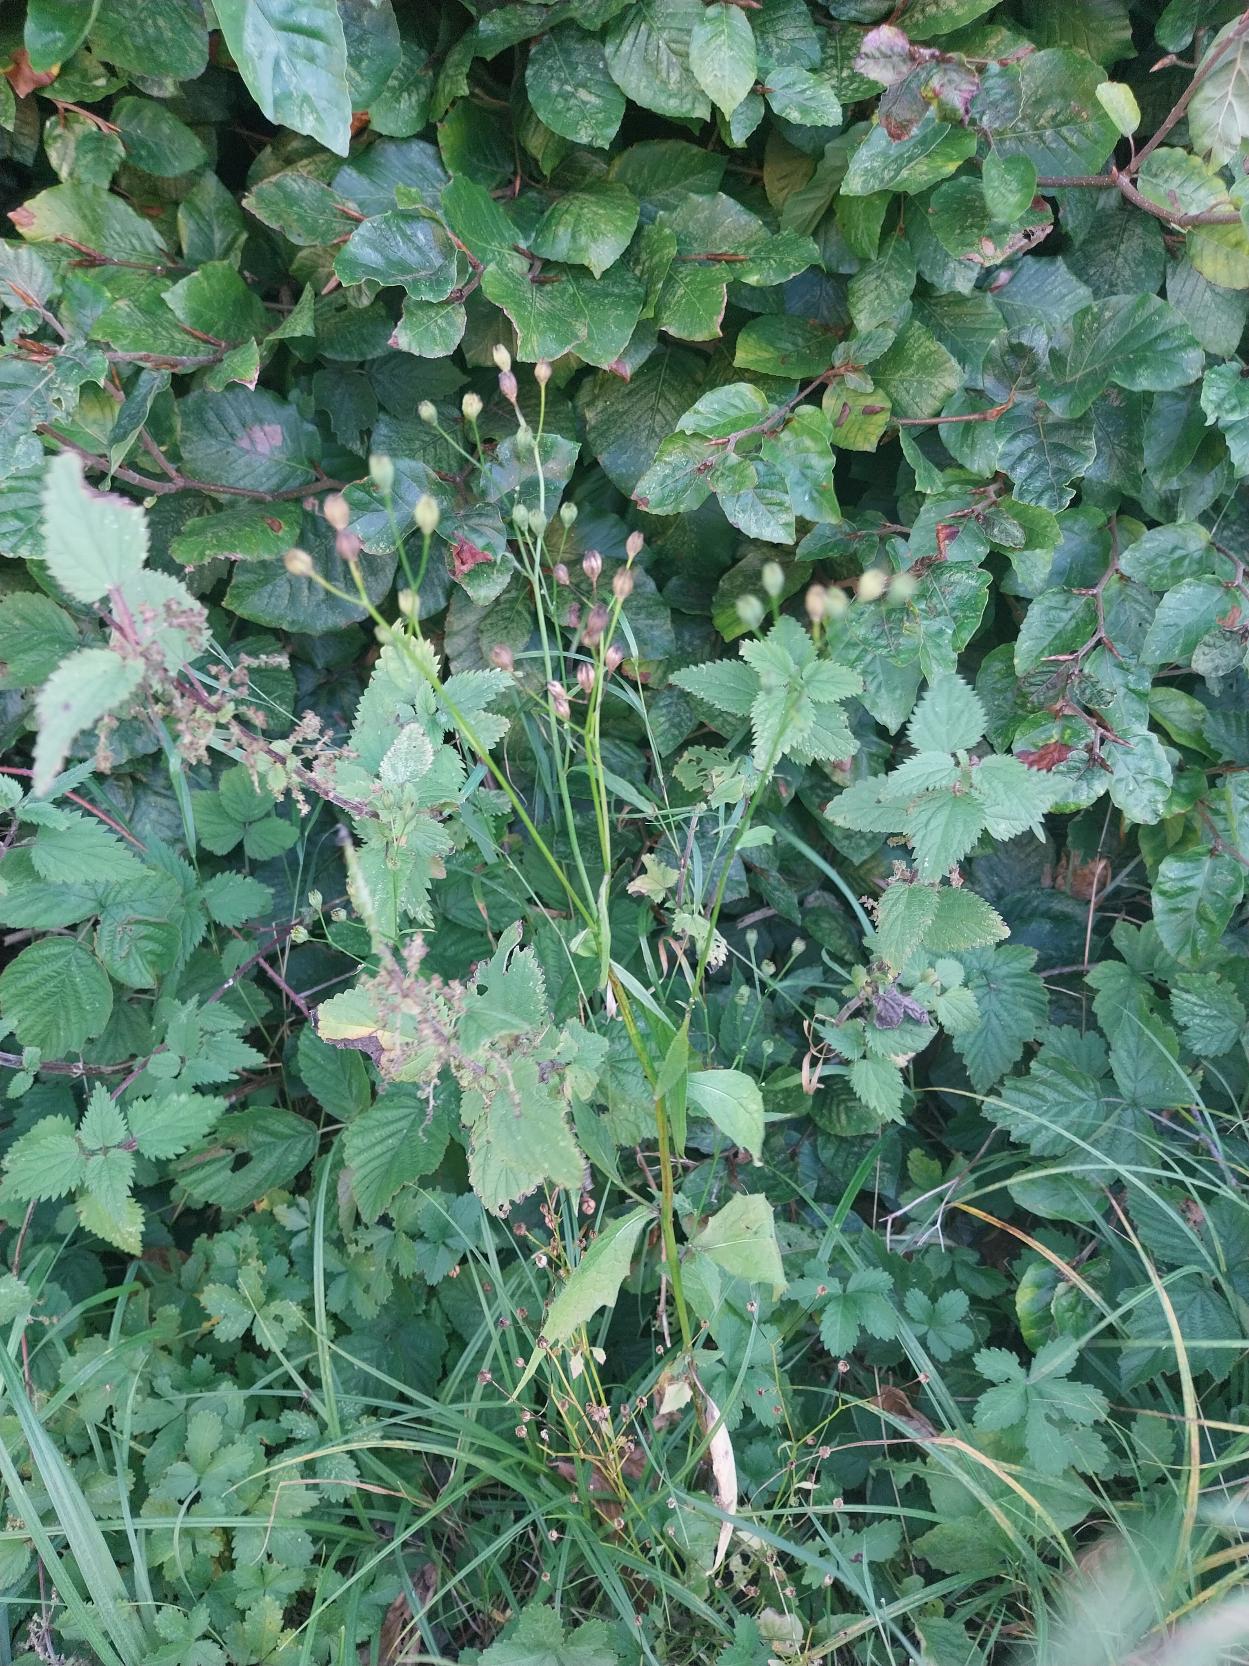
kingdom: Plantae
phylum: Tracheophyta
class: Magnoliopsida
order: Asterales
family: Asteraceae
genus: Lapsana
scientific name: Lapsana communis
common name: Haremad
